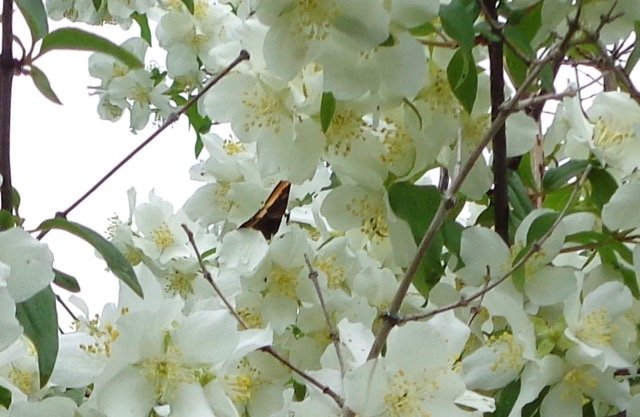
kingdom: Animalia
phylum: Arthropoda
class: Insecta
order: Lepidoptera
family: Nymphalidae
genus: Aglais
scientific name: Aglais milberti
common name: Milbert's Tortoiseshell
